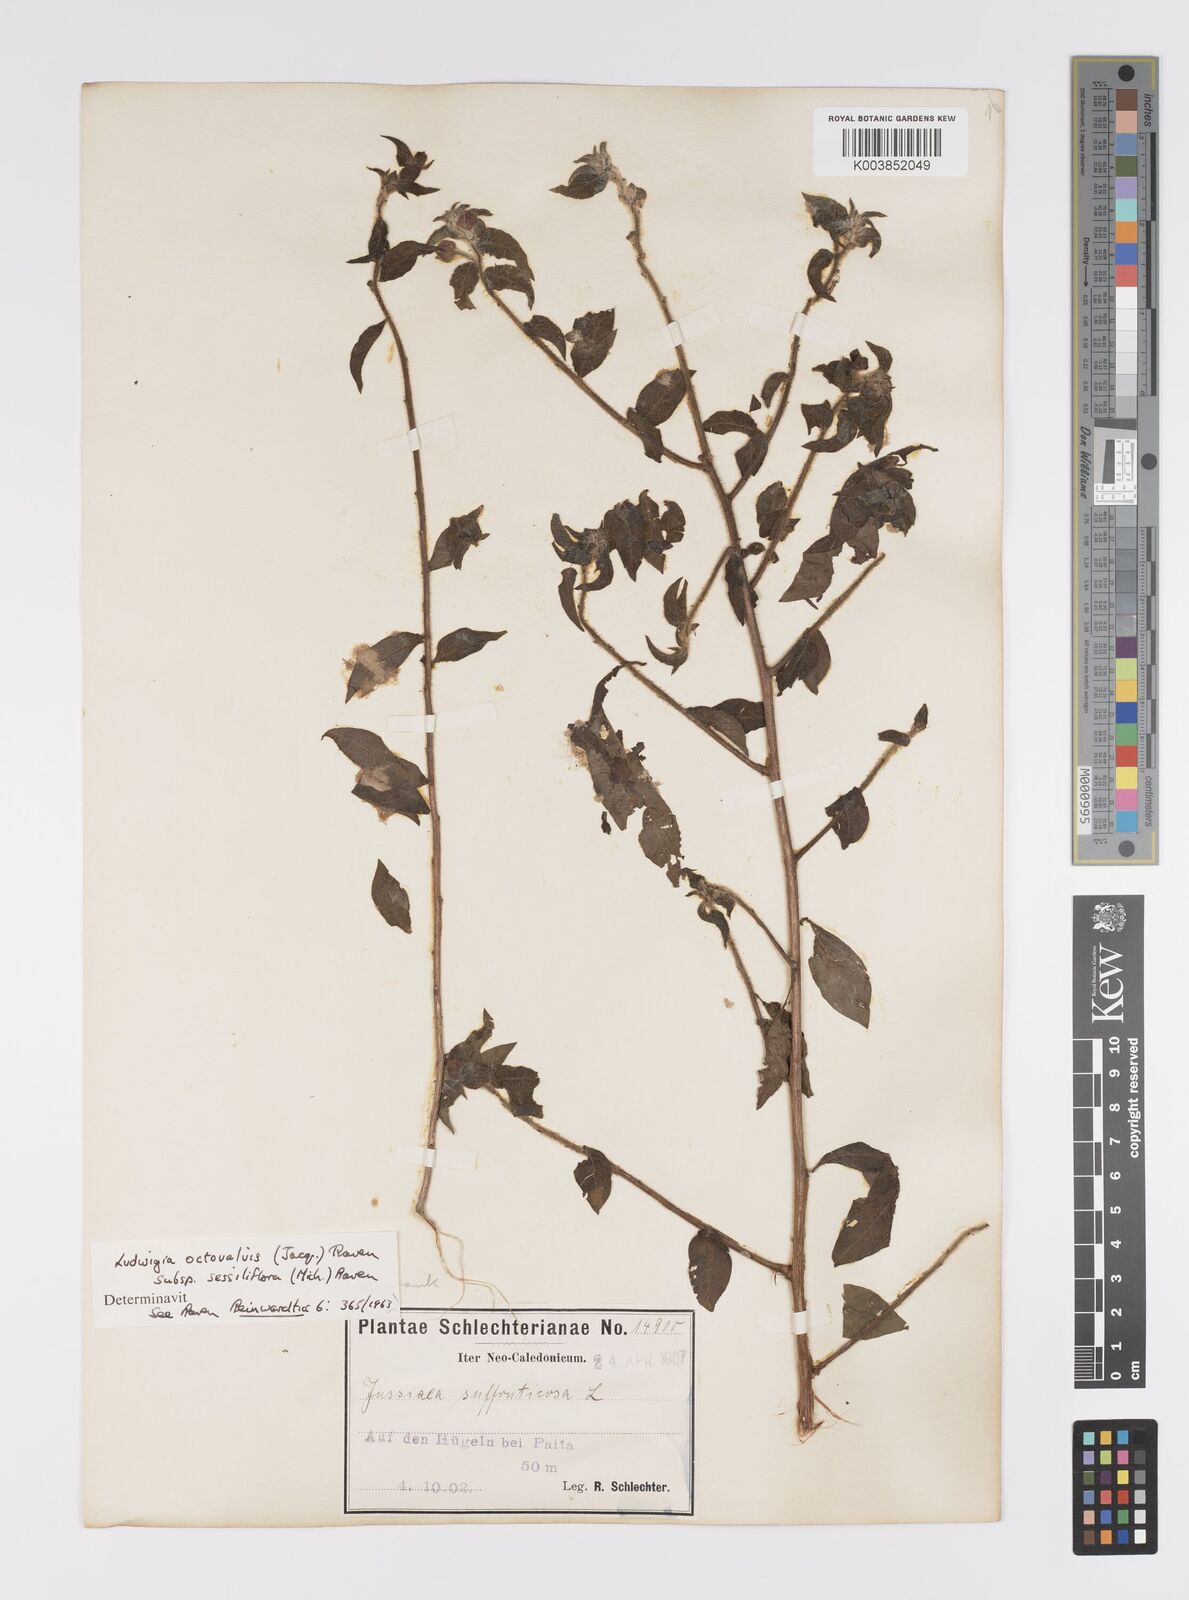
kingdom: Plantae
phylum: Tracheophyta
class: Magnoliopsida
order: Myrtales
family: Onagraceae
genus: Ludwigia
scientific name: Ludwigia octovalvis
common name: Water-primrose
